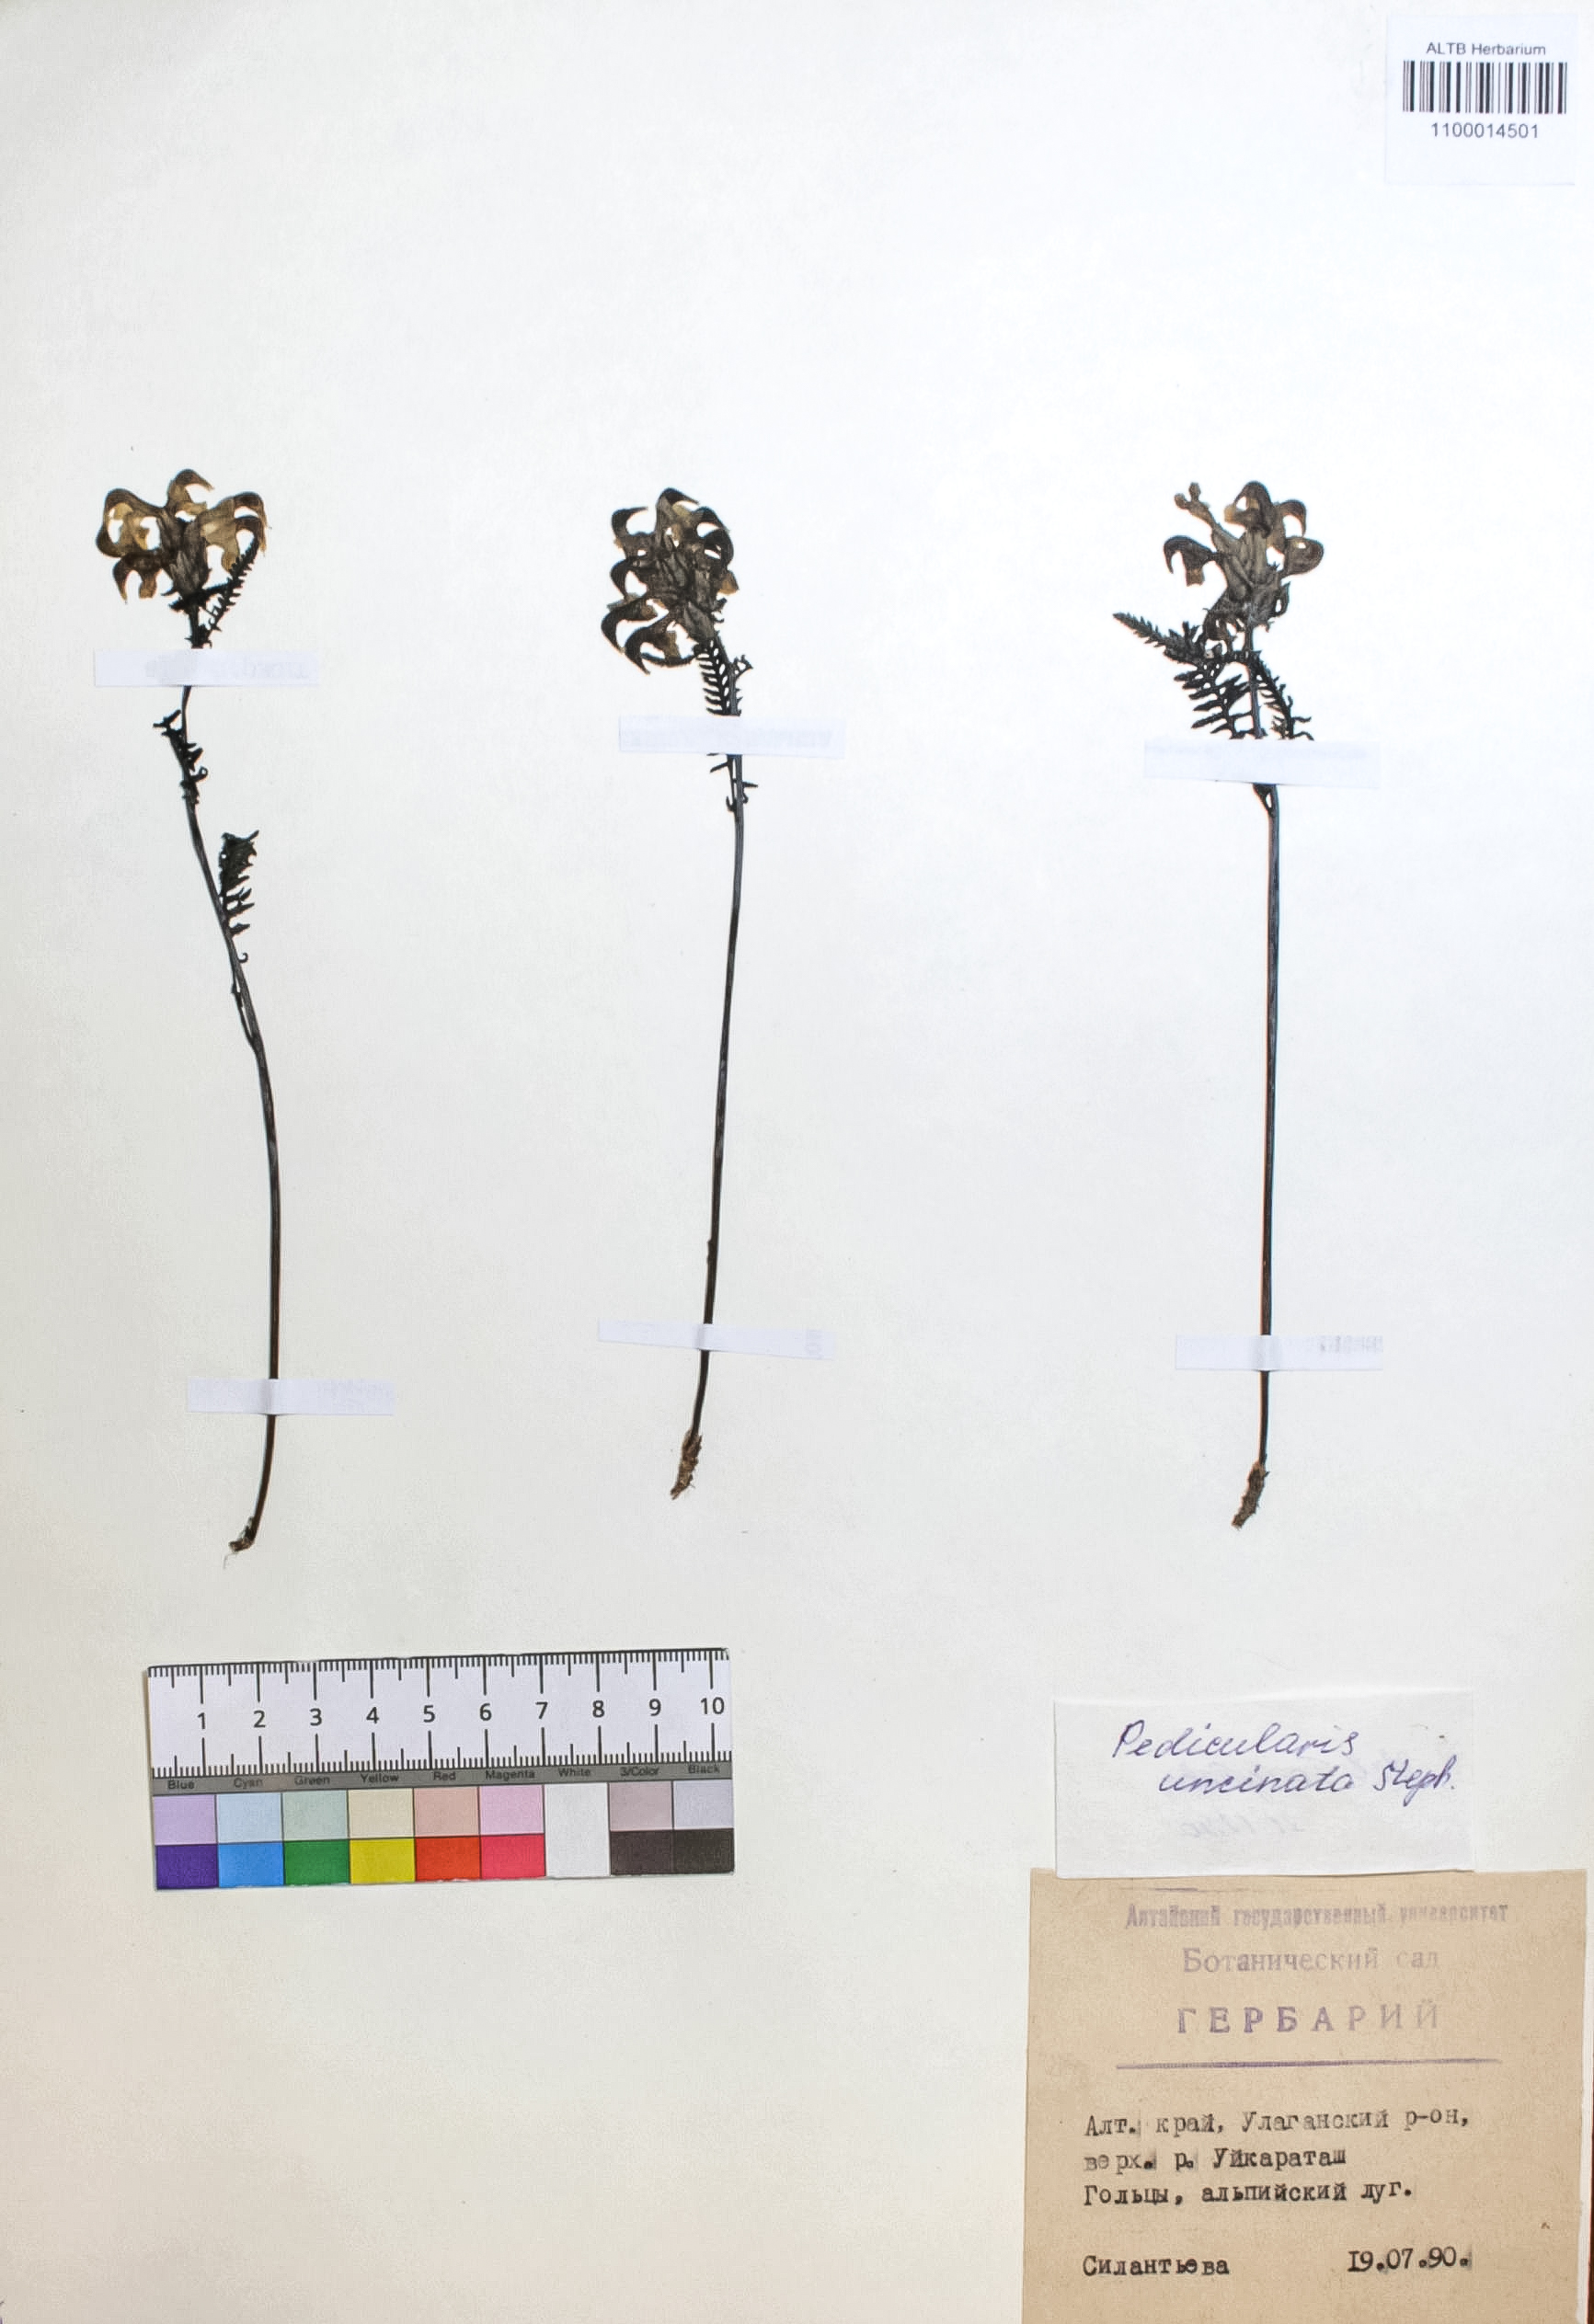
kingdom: Plantae
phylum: Tracheophyta
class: Magnoliopsida
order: Lamiales
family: Orobanchaceae
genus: Pedicularis
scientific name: Pedicularis incarnata
